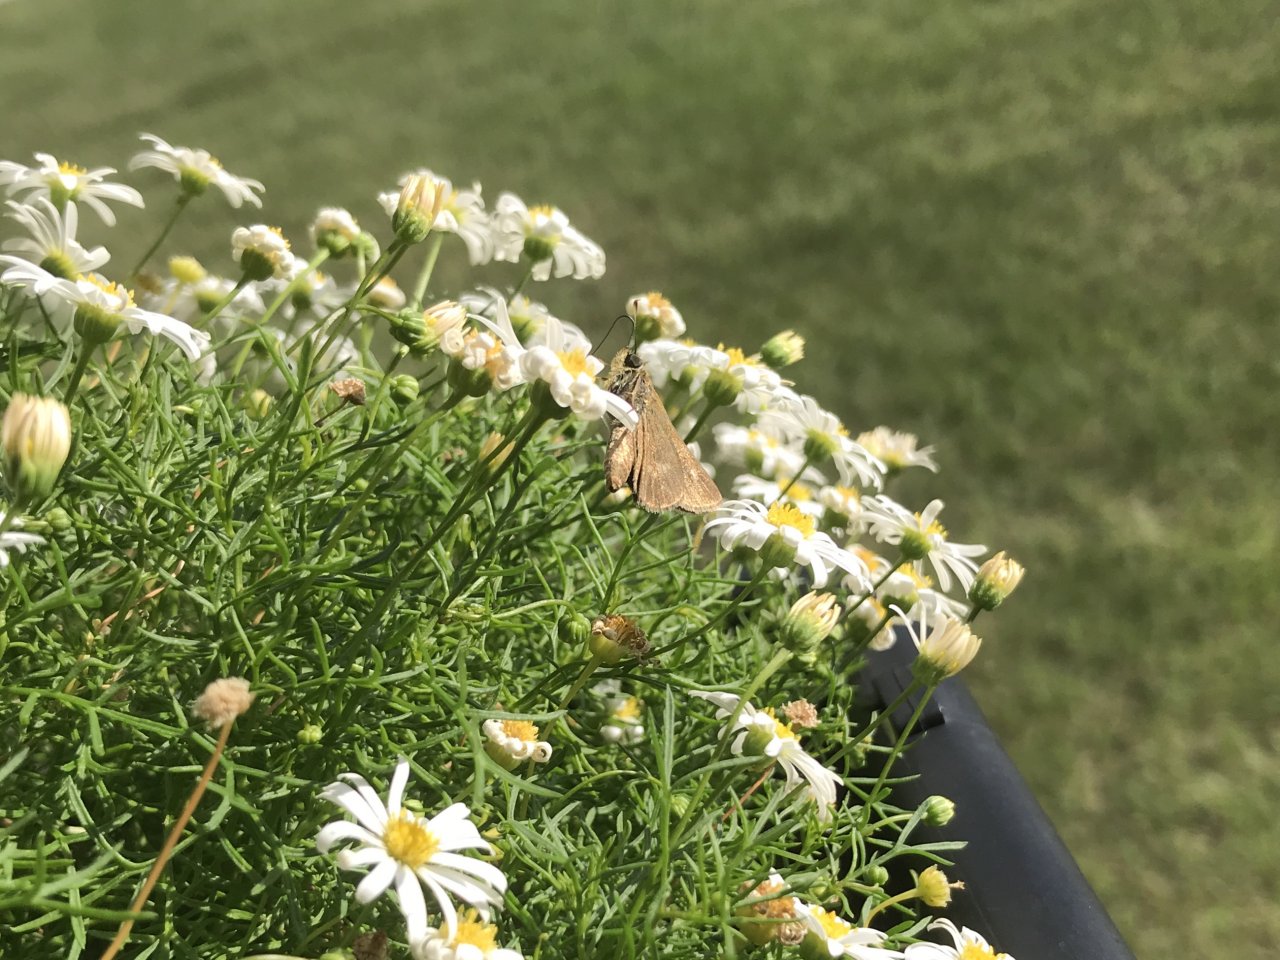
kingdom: Animalia
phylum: Arthropoda
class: Insecta
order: Lepidoptera
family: Hesperiidae
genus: Euphyes
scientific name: Euphyes vestris
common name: Dun Skipper
